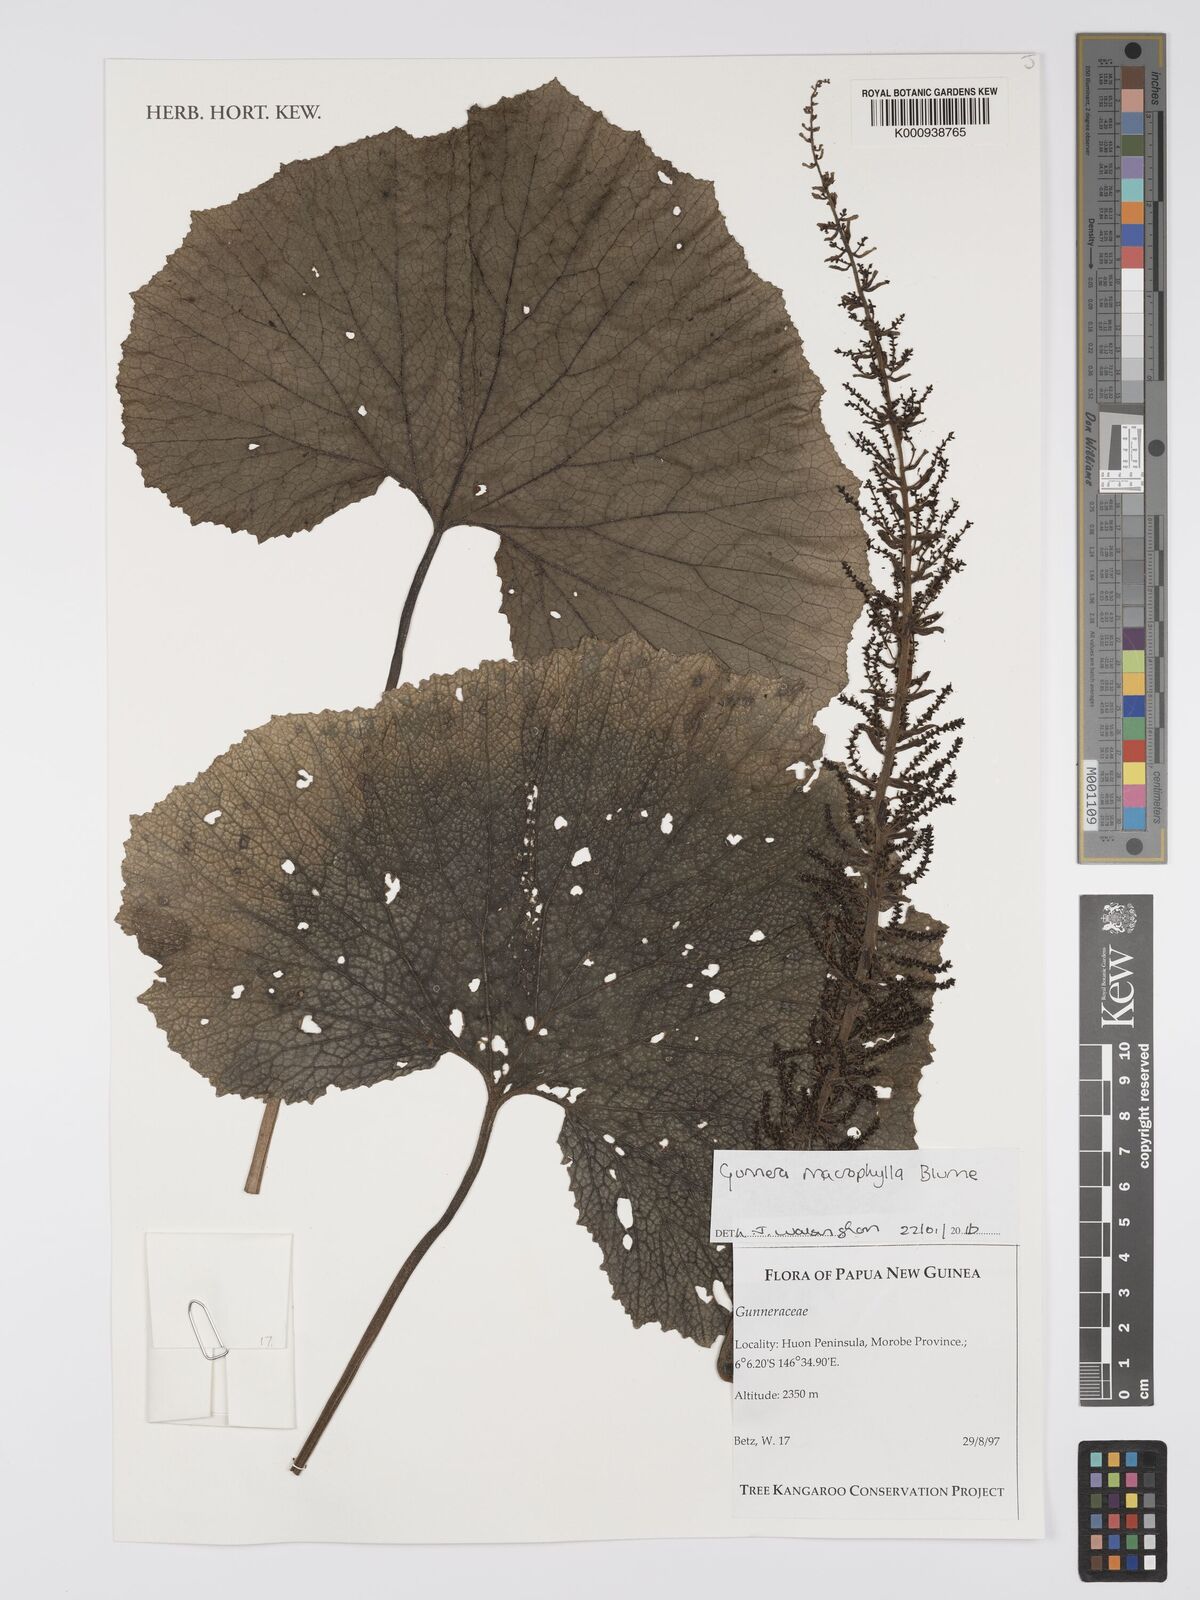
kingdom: Plantae
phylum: Tracheophyta
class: Magnoliopsida
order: Gunnerales
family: Gunneraceae
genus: Gunnera
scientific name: Gunnera macrophylla
